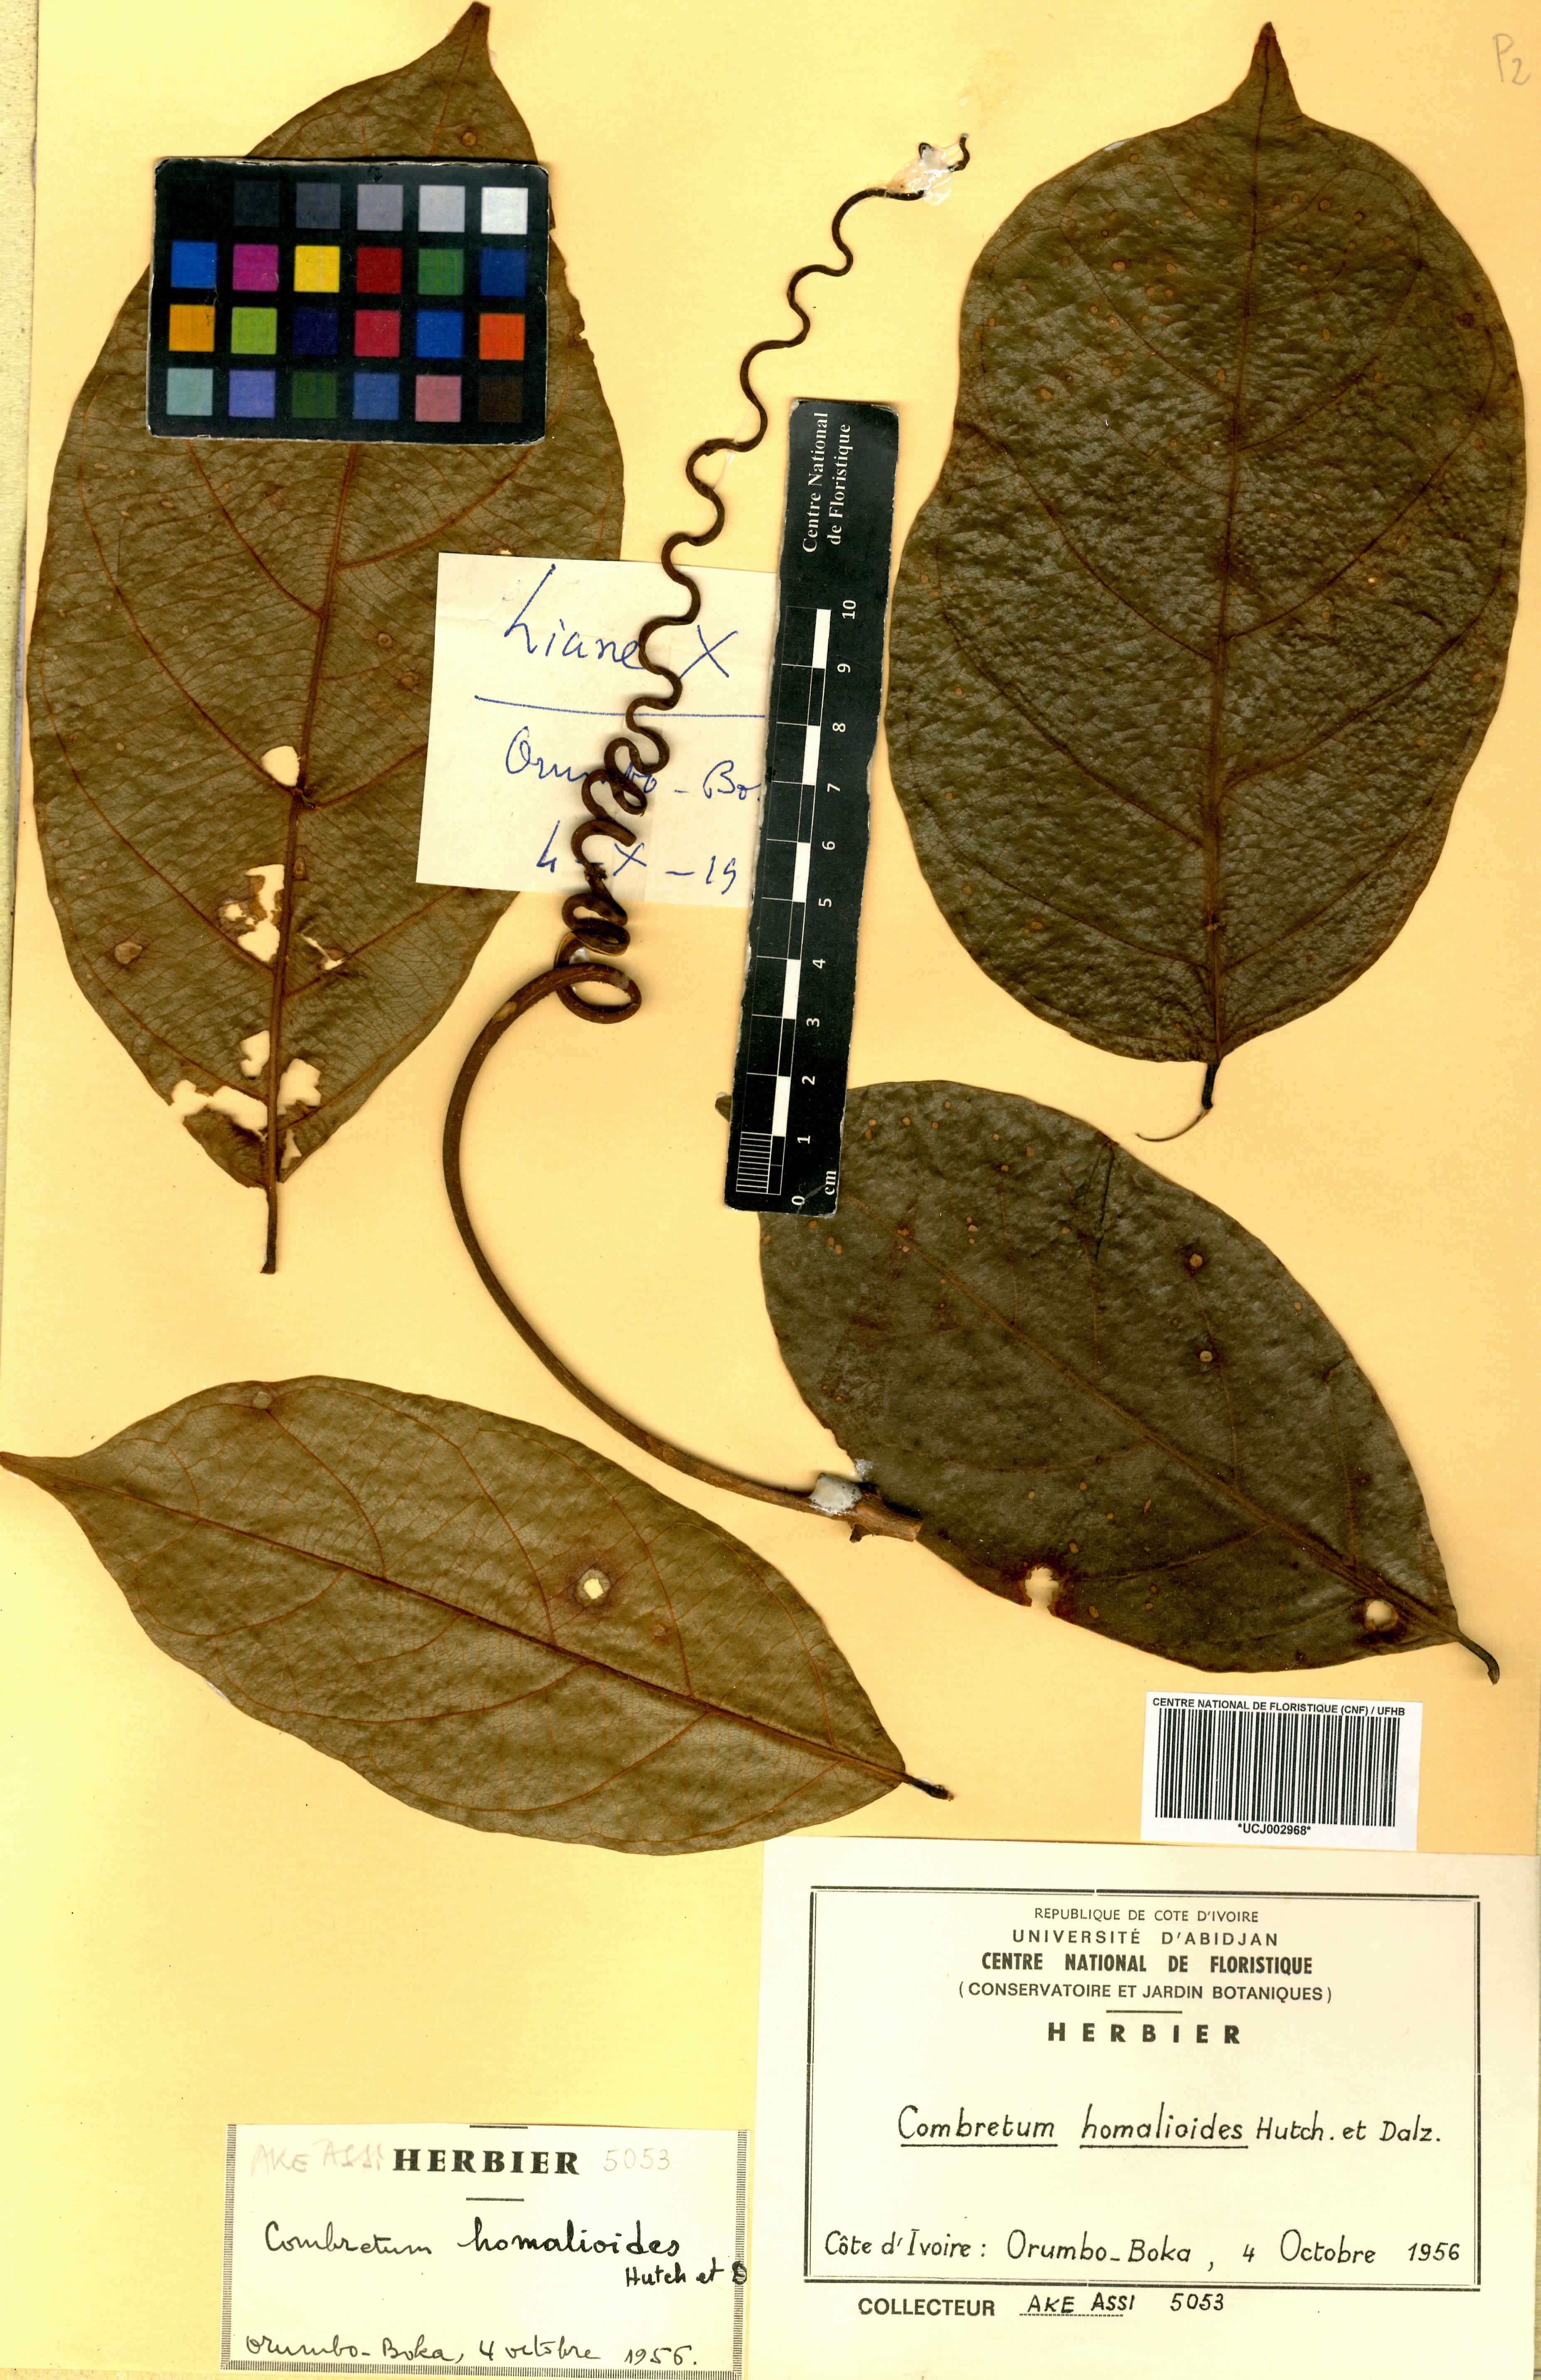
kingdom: Plantae
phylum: Tracheophyta
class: Magnoliopsida
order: Myrtales
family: Combretaceae
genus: Combretum
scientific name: Combretum homalioides
